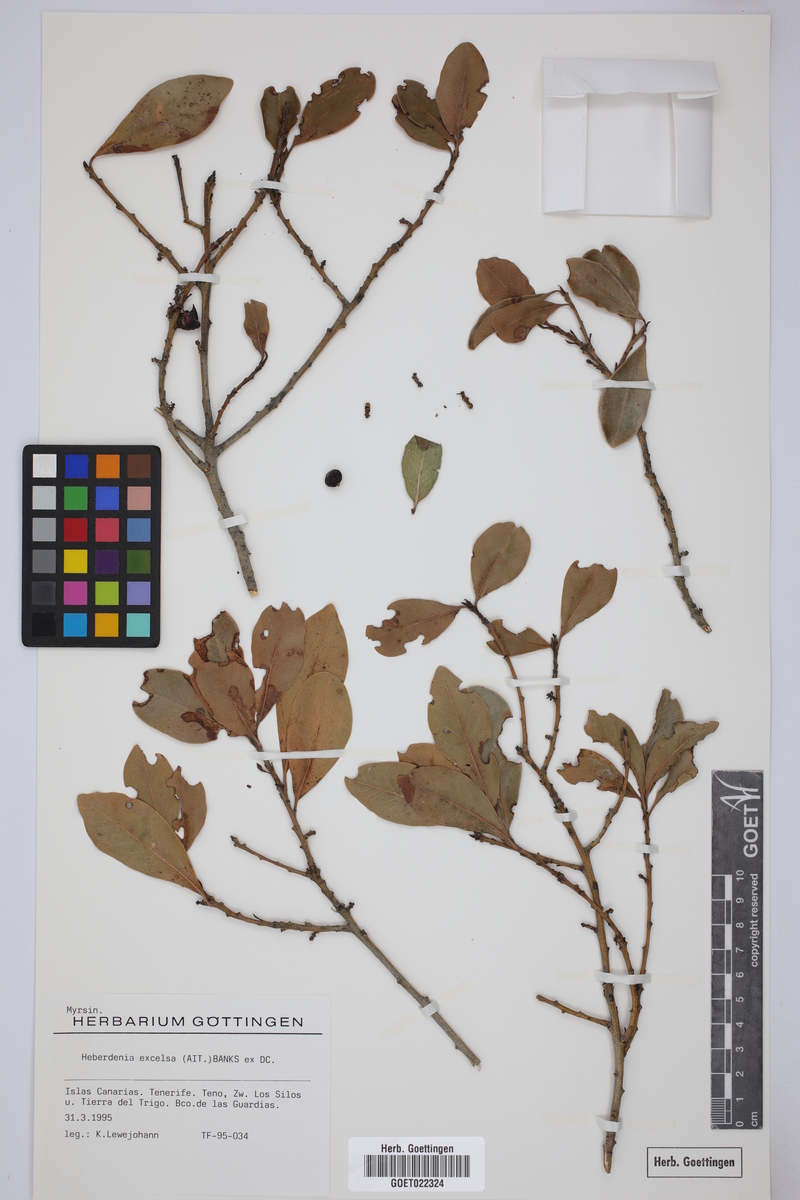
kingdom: Plantae
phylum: Tracheophyta
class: Magnoliopsida
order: Ericales
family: Primulaceae
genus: Heberdenia
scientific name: Heberdenia excelsa
